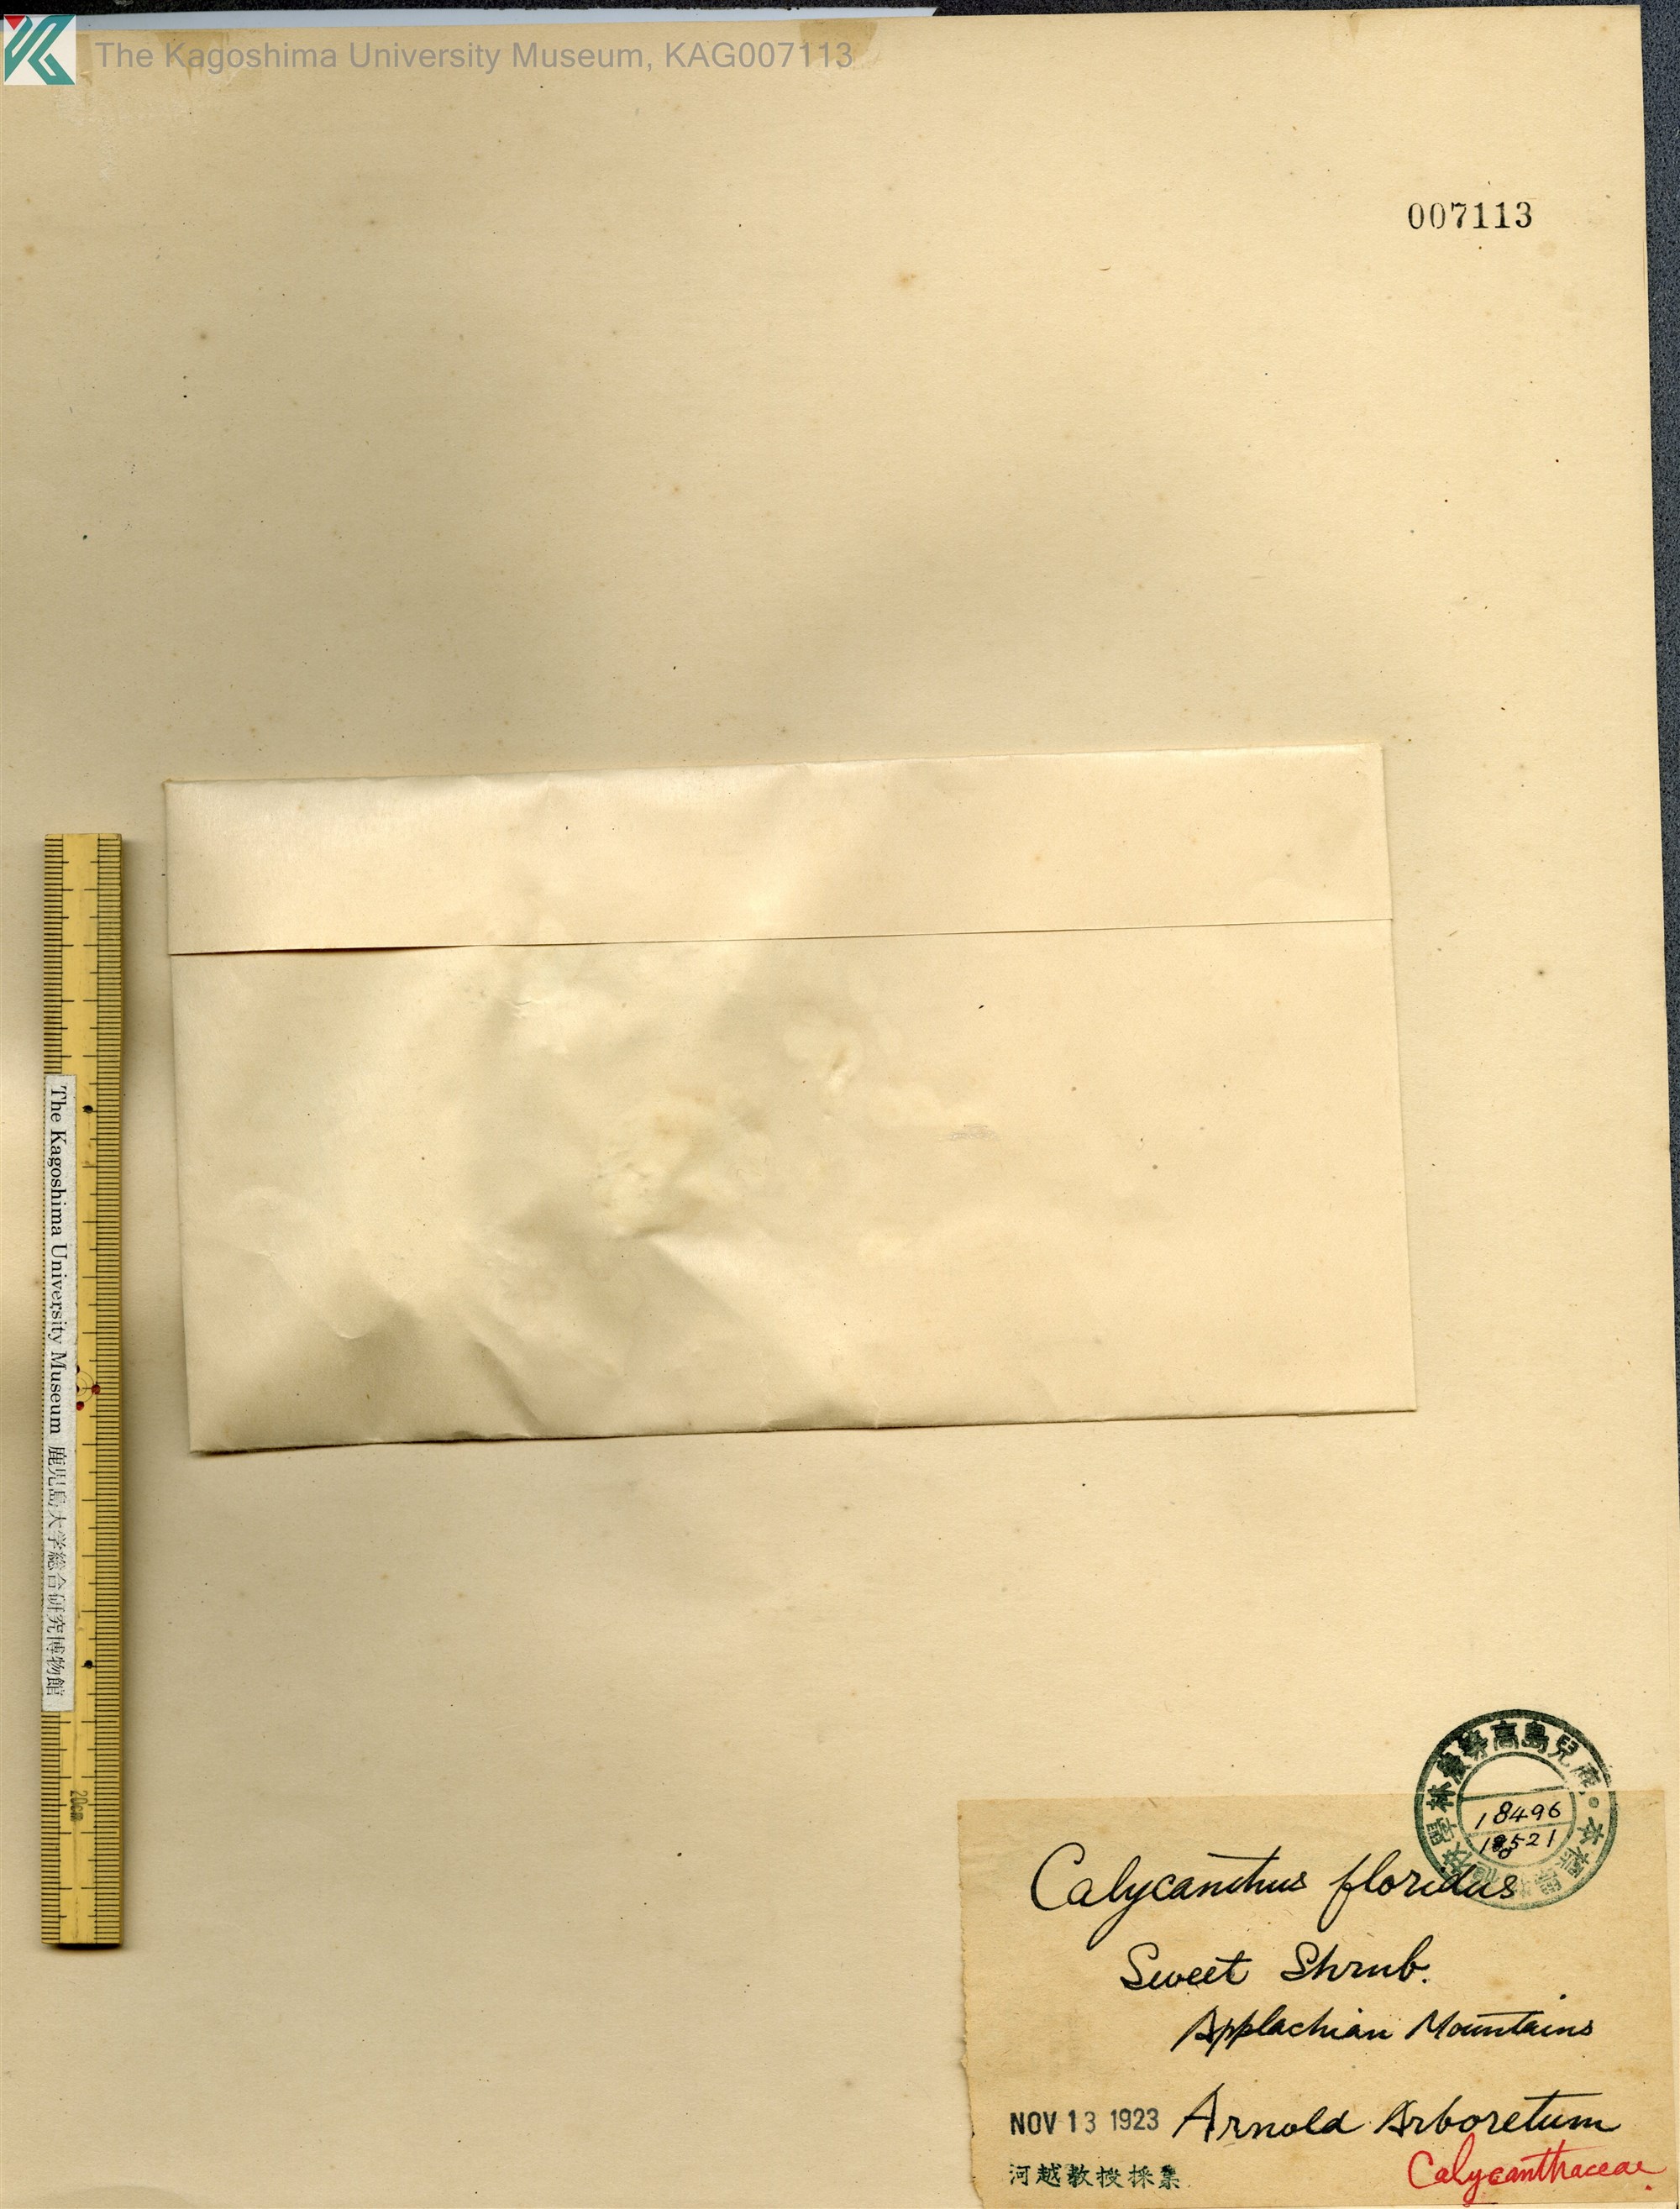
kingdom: Plantae
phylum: Tracheophyta
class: Magnoliopsida
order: Laurales
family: Calycanthaceae
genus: Calycanthus
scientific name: Calycanthus floridus
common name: Carolina-allspice
